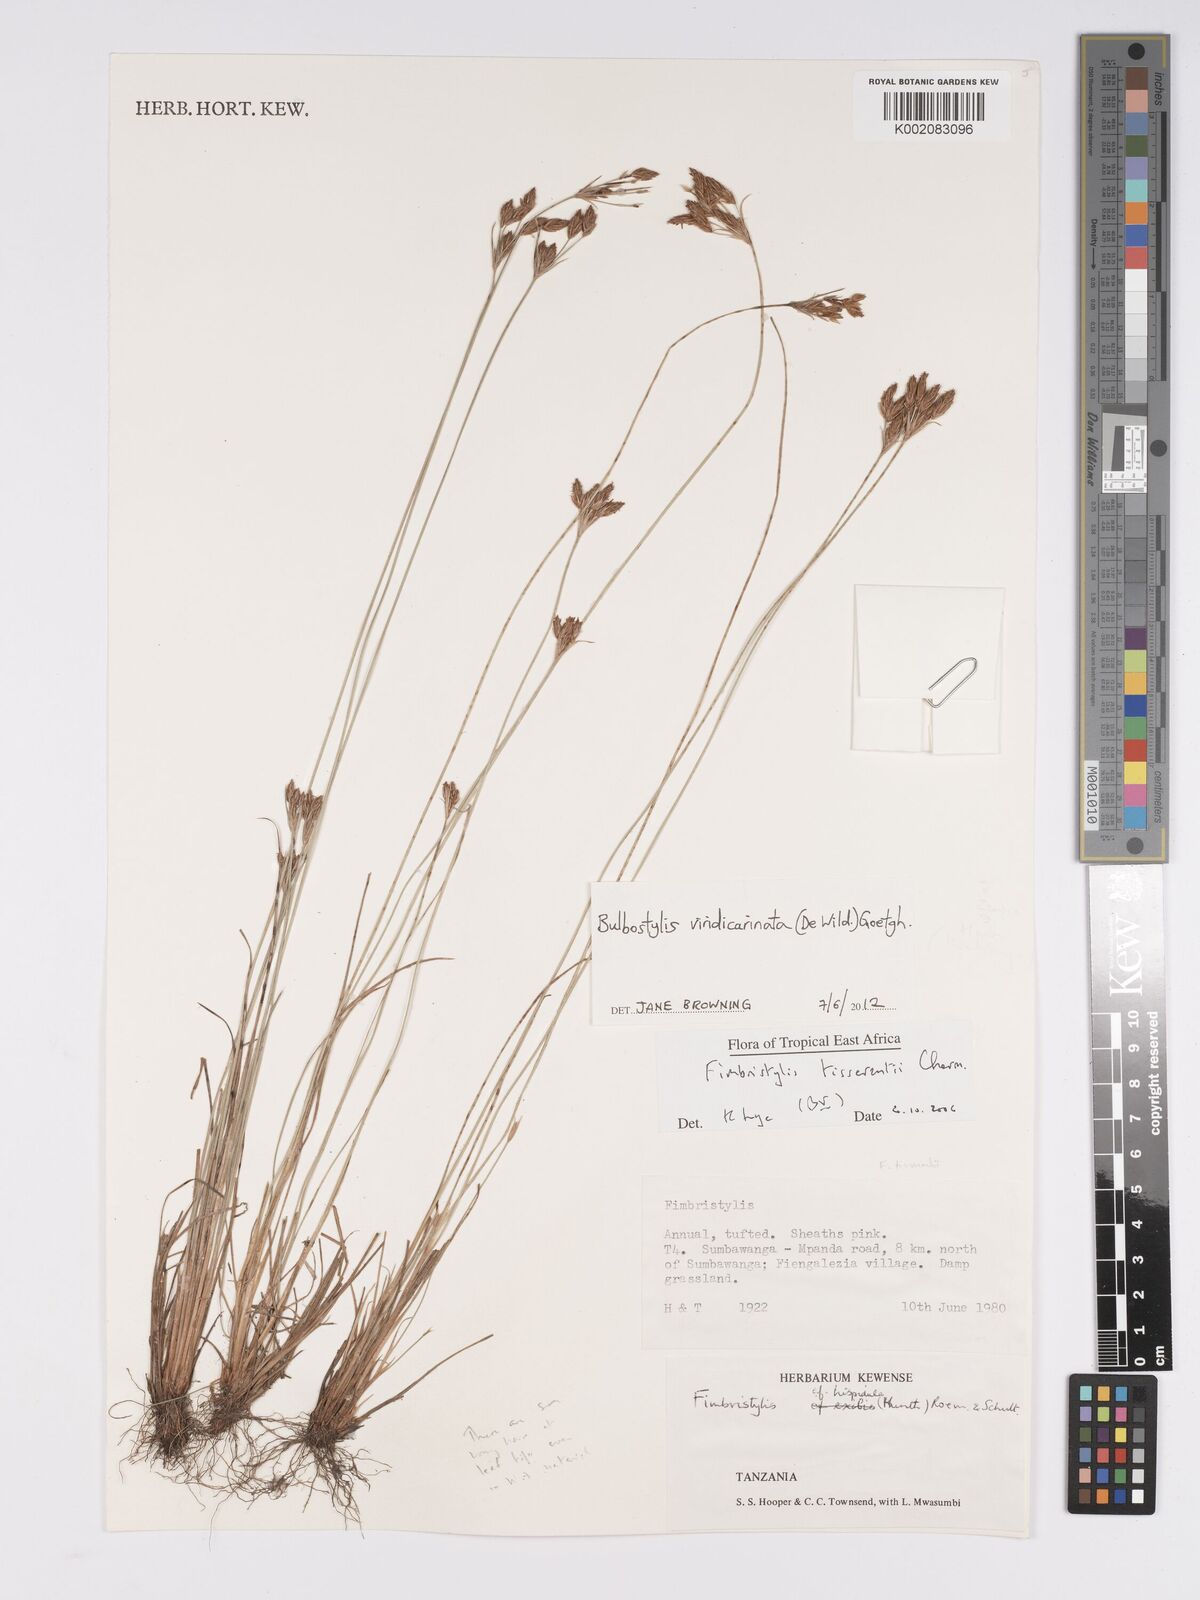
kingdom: Plantae
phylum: Tracheophyta
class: Liliopsida
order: Poales
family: Cyperaceae
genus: Bulbostylis
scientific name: Bulbostylis viridecarinata
